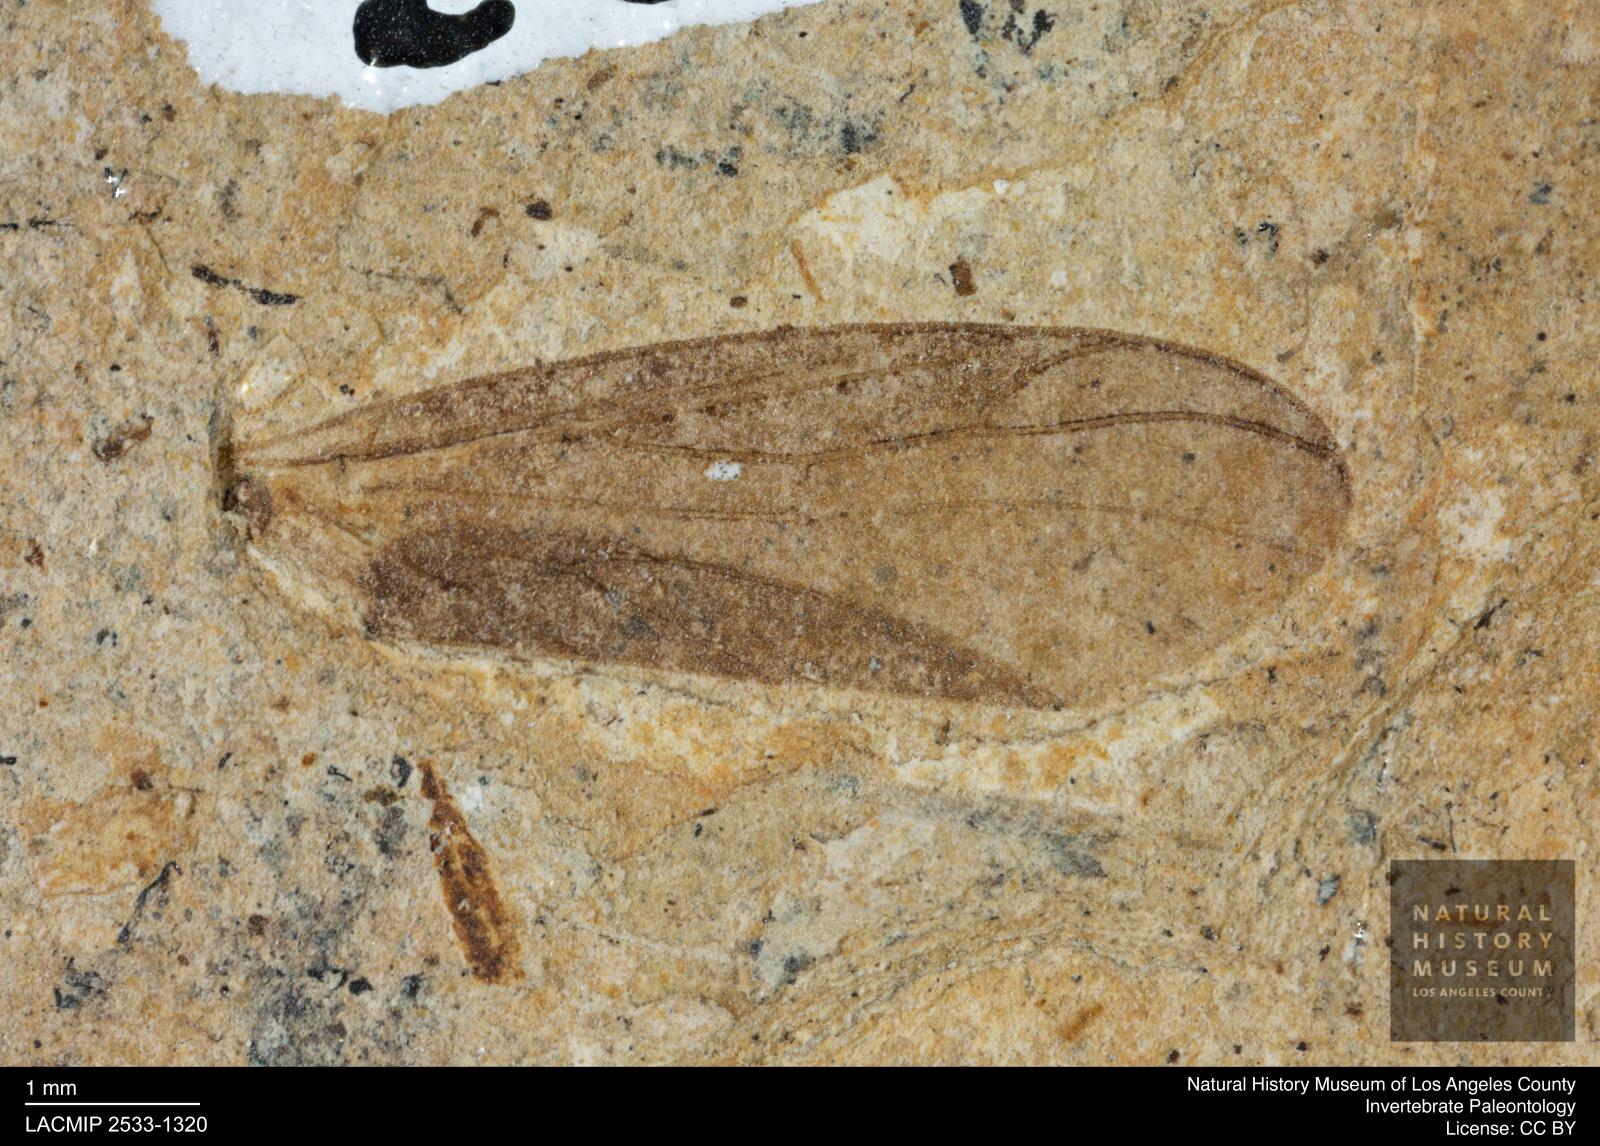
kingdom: Animalia
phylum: Arthropoda
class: Insecta
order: Diptera
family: Bibionidae
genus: Plecia
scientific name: Plecia hypogaea
